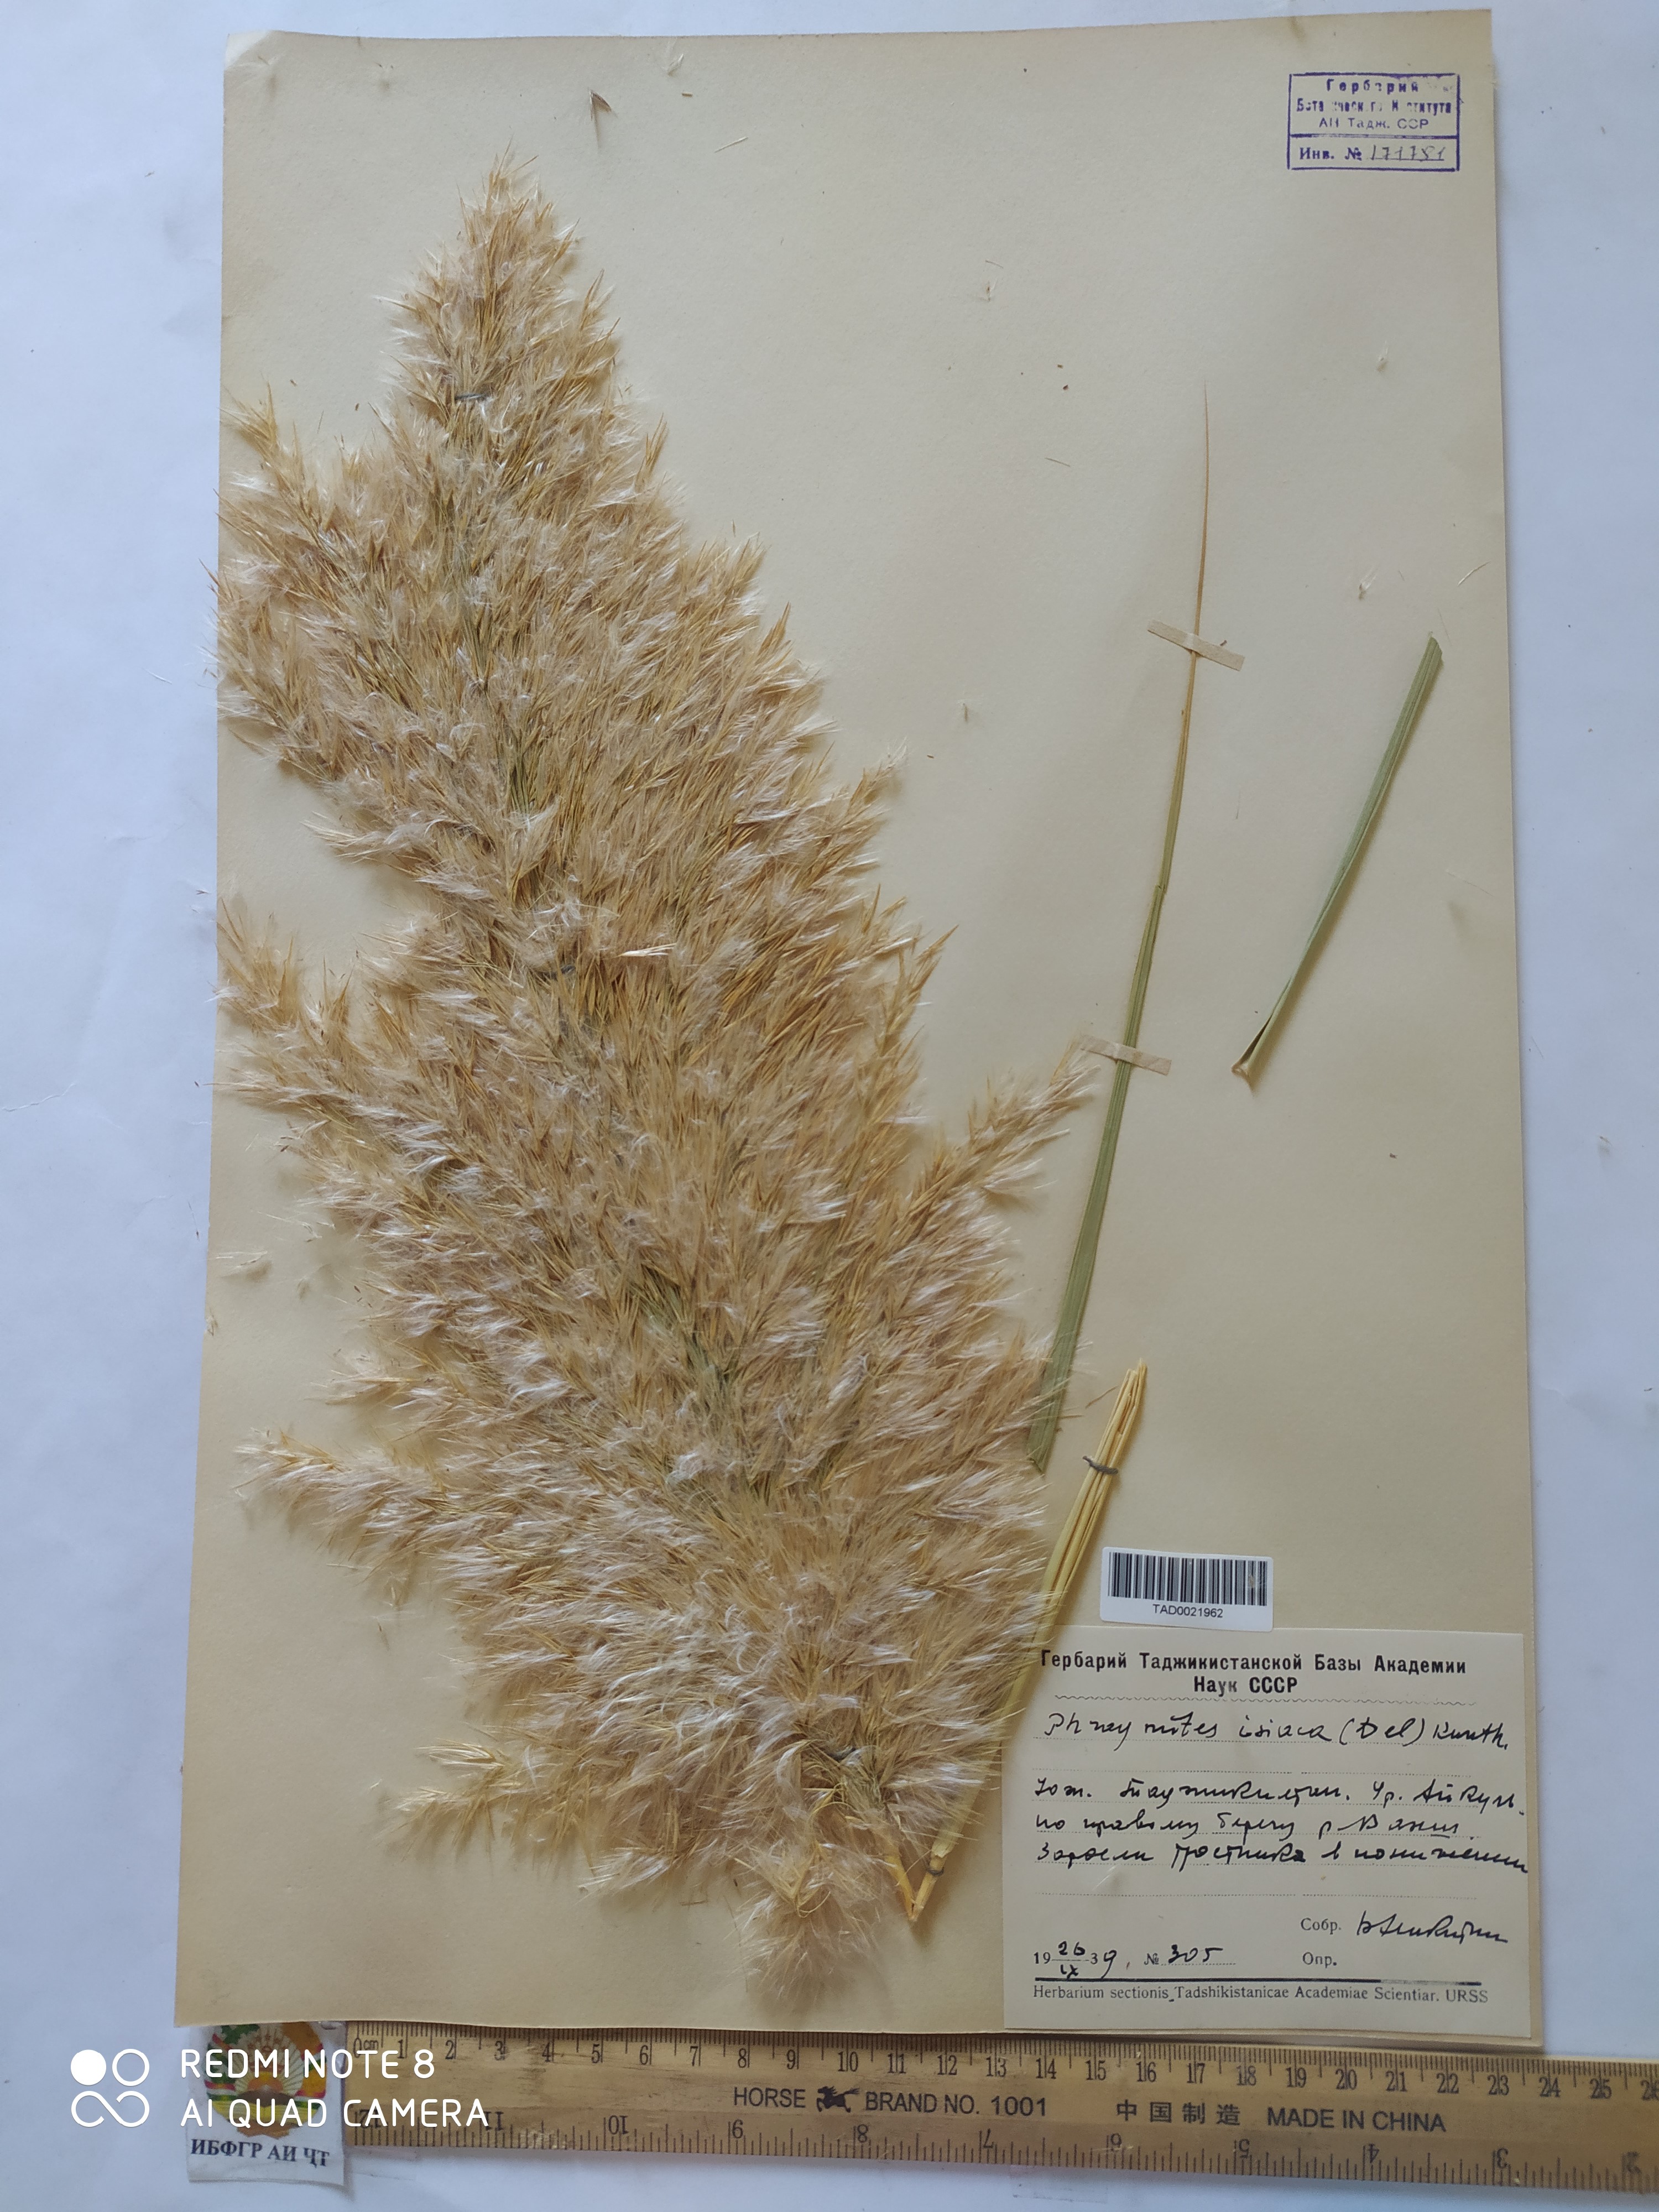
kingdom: Plantae
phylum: Tracheophyta
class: Liliopsida
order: Poales
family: Poaceae
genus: Phragmites
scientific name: Phragmites australis
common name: Common reed
